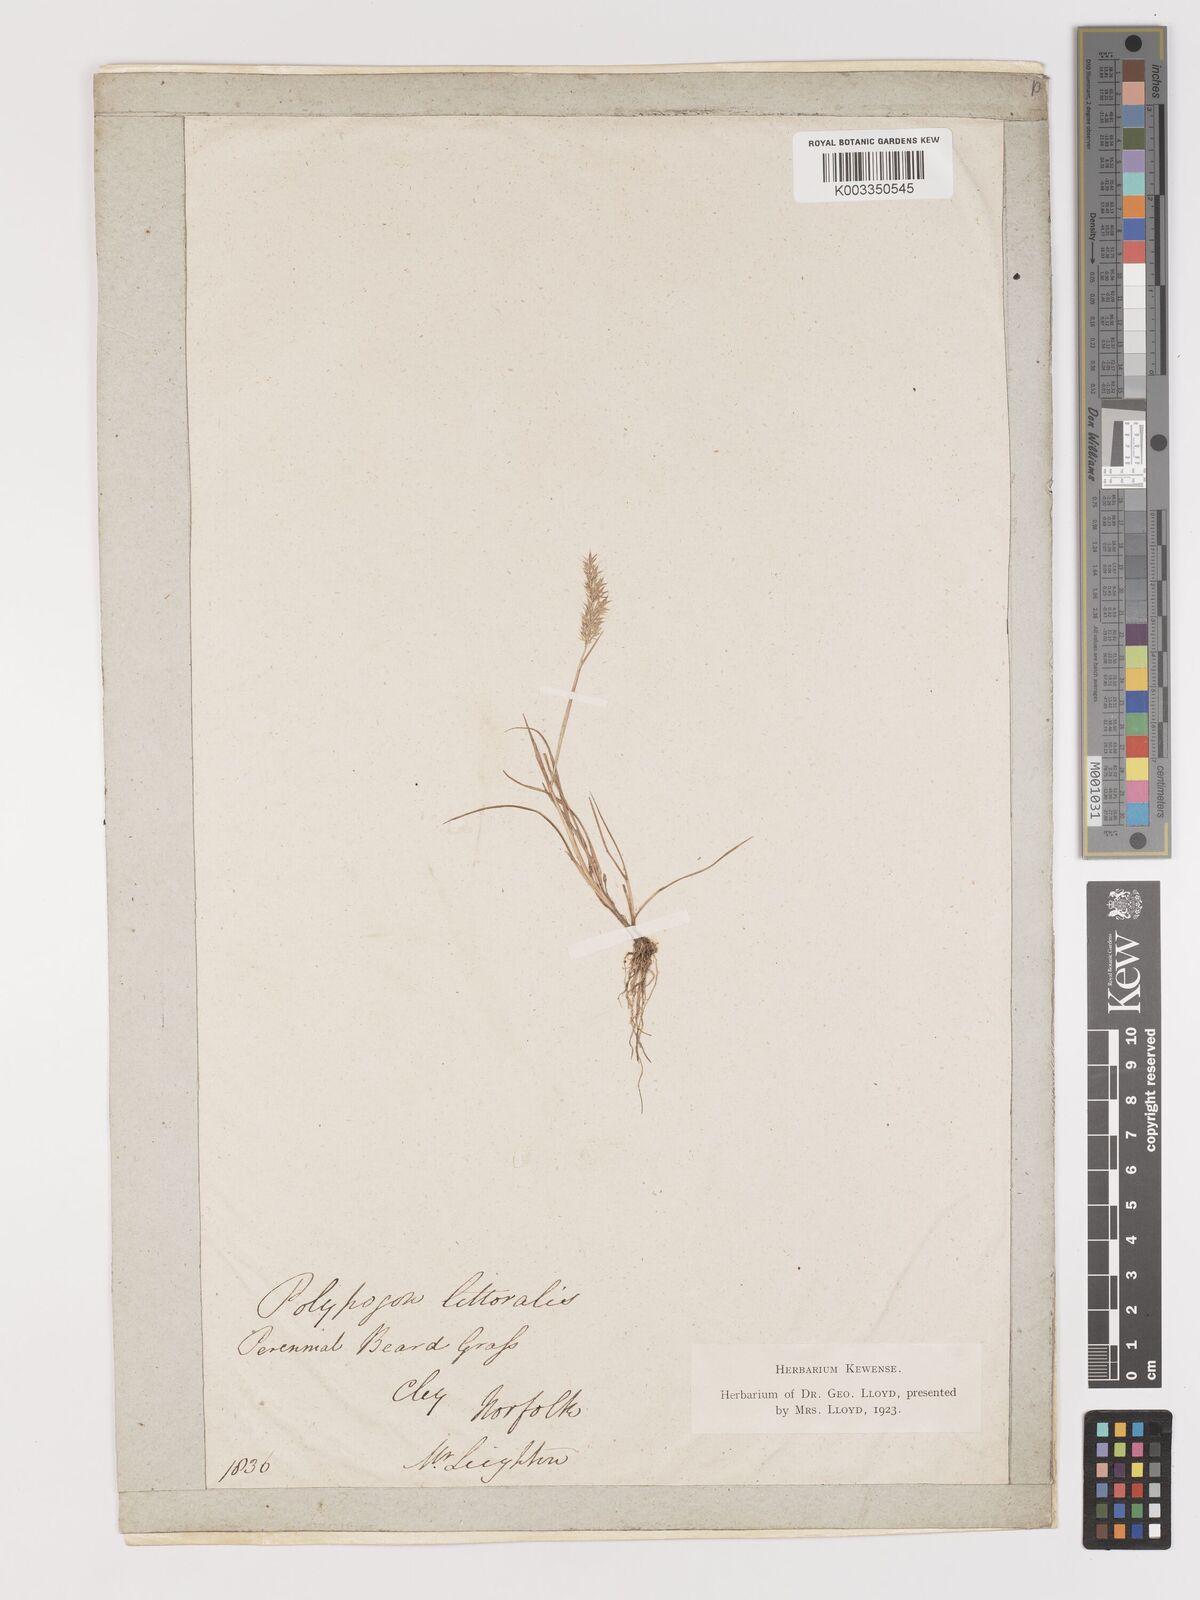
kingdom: Plantae
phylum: Tracheophyta
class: Liliopsida
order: Poales
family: Poaceae
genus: Agropogon
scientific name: Agropogon lutosus
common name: Coast agropogon
